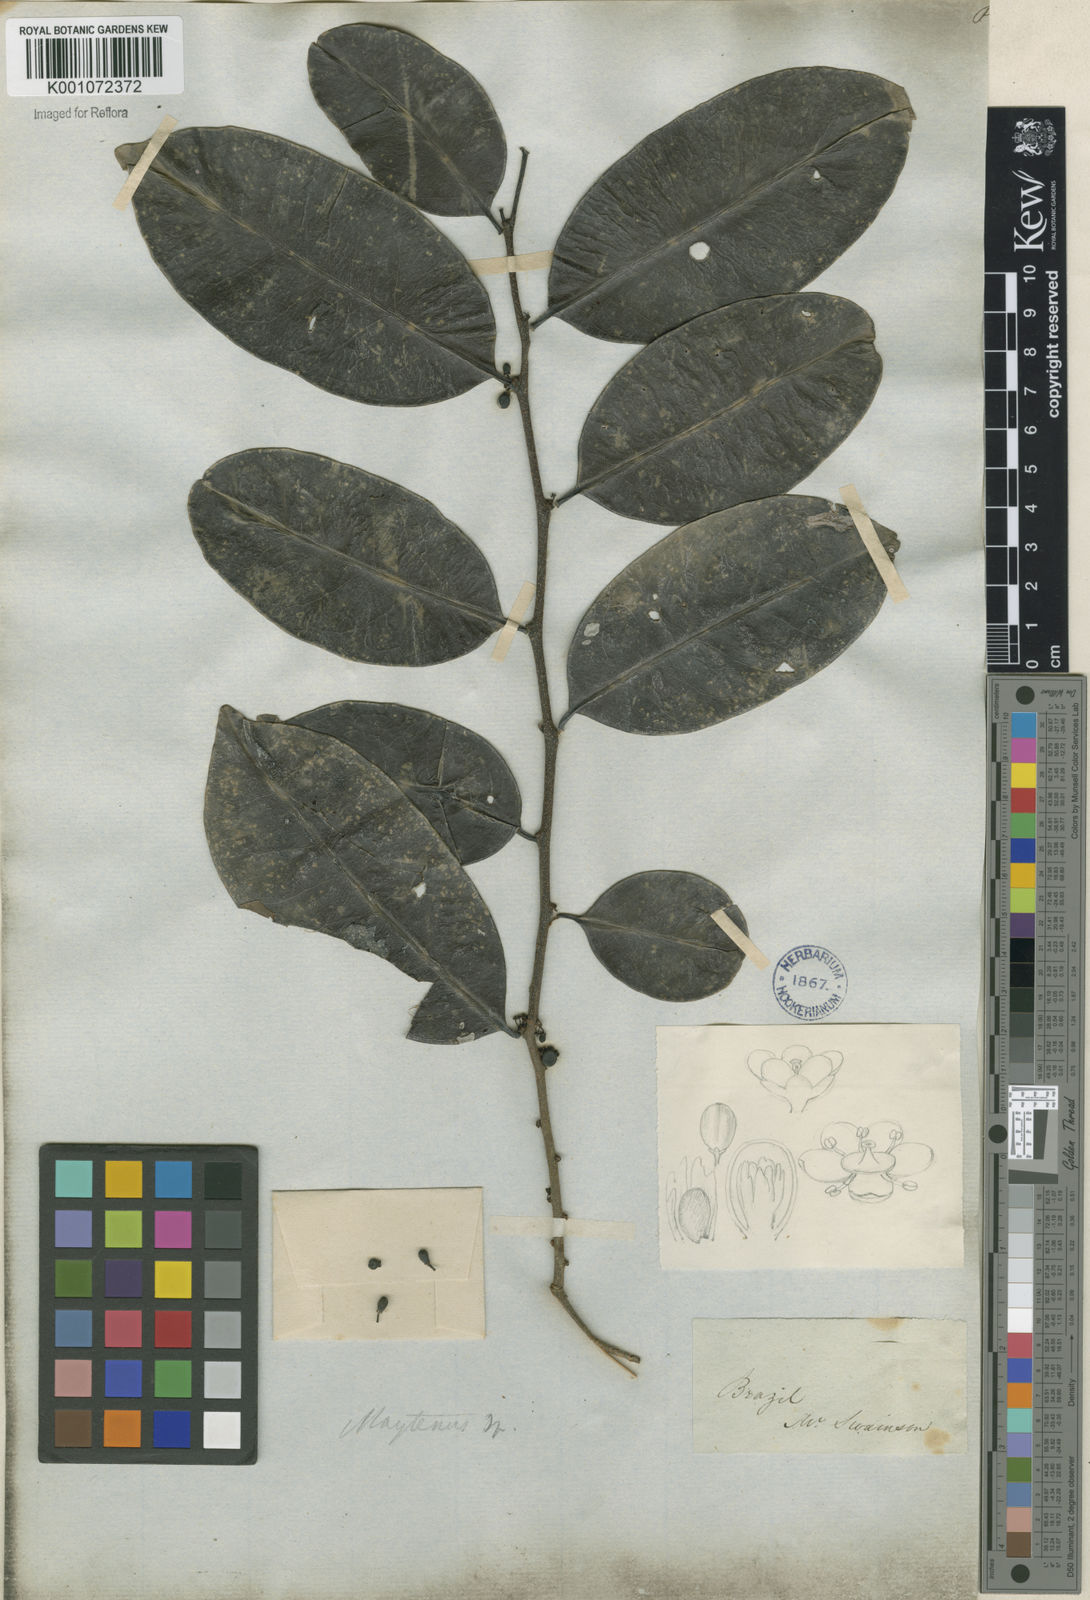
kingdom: Plantae
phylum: Tracheophyta
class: Magnoliopsida
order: Celastrales
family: Celastraceae
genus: Maytenus
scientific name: Maytenus
